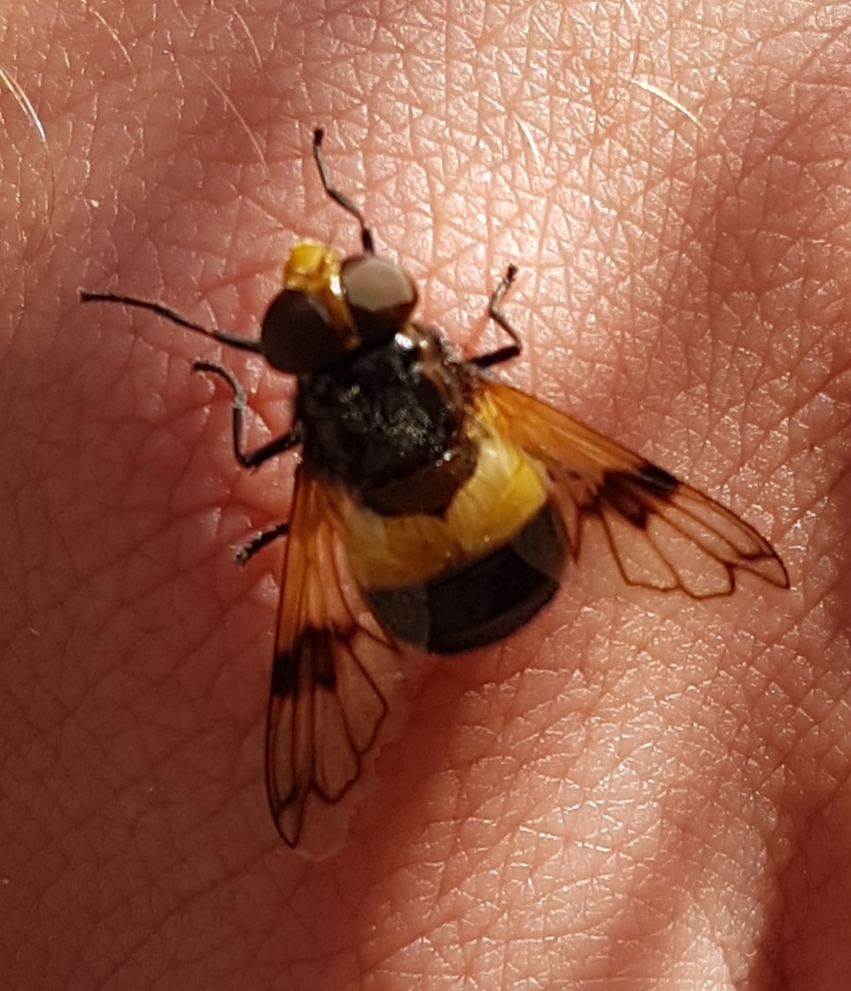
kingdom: Animalia
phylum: Arthropoda
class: Insecta
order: Diptera
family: Syrphidae
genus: Volucella
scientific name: Volucella pellucens
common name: Hvidbåndet humlesvirreflue
